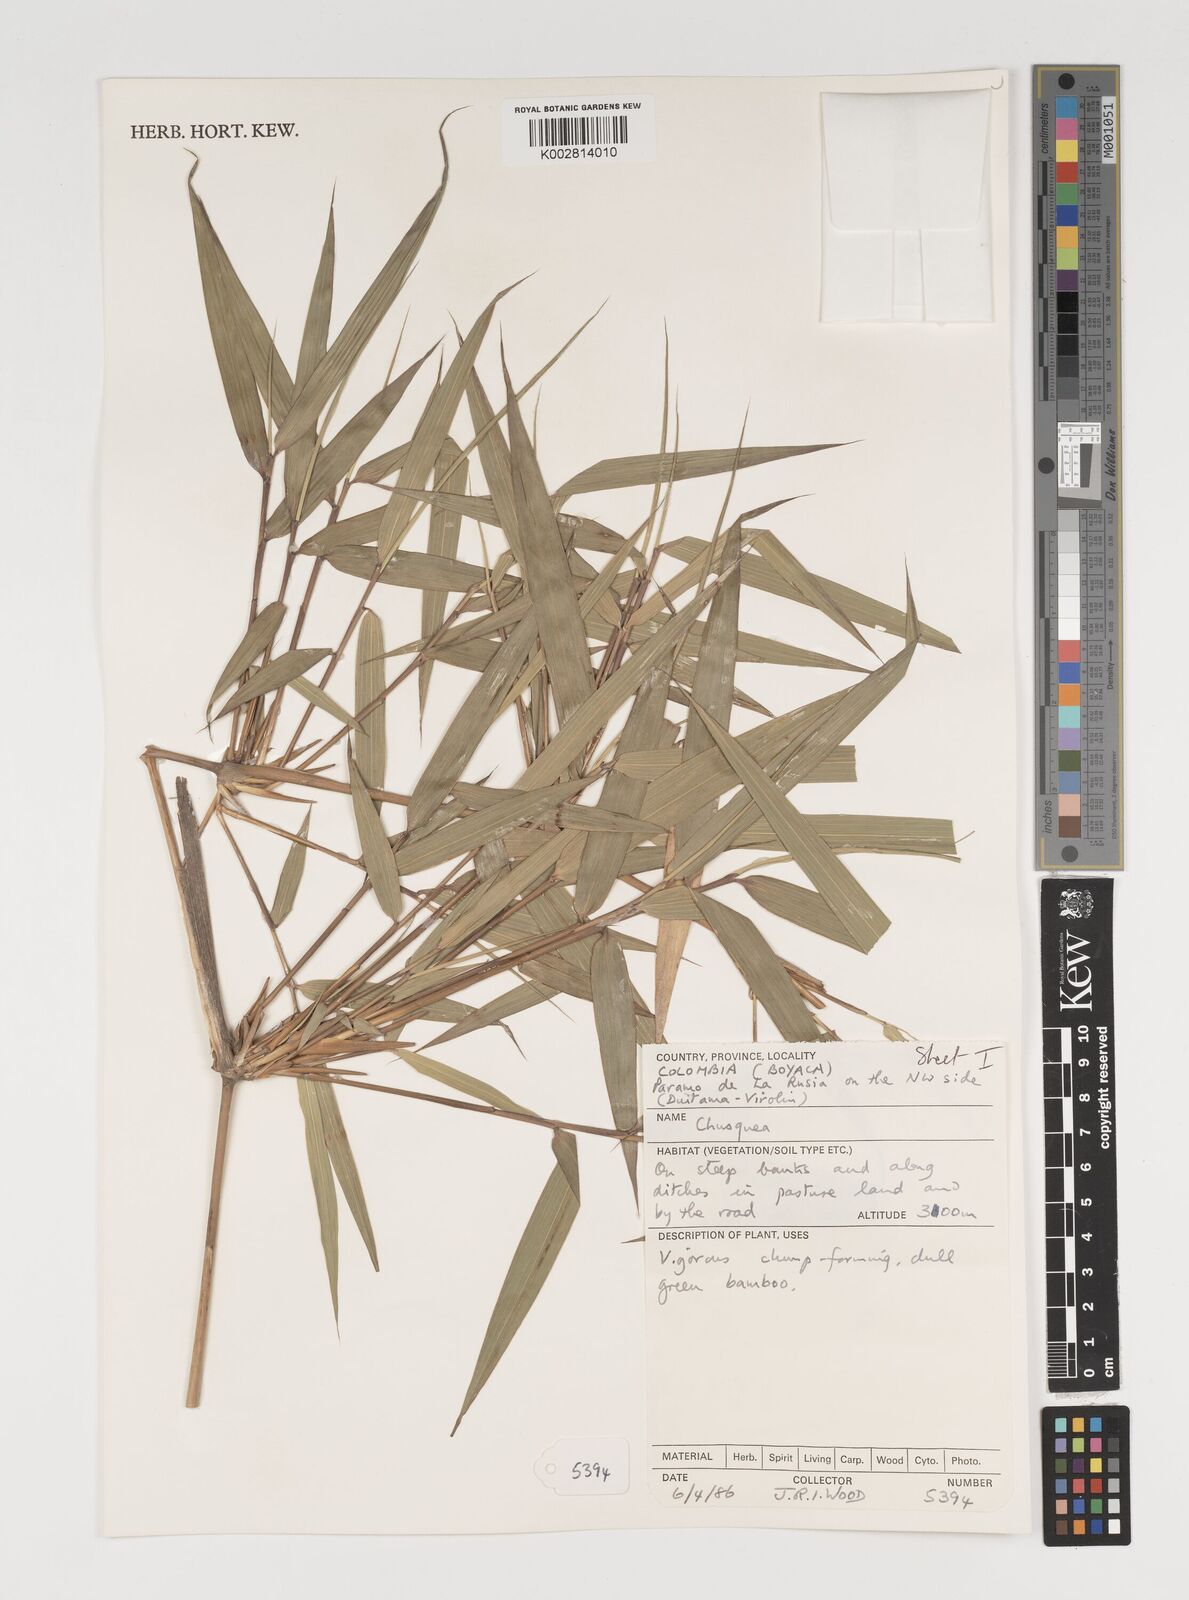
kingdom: Plantae
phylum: Tracheophyta
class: Liliopsida
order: Poales
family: Poaceae
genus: Chusquea
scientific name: Chusquea
